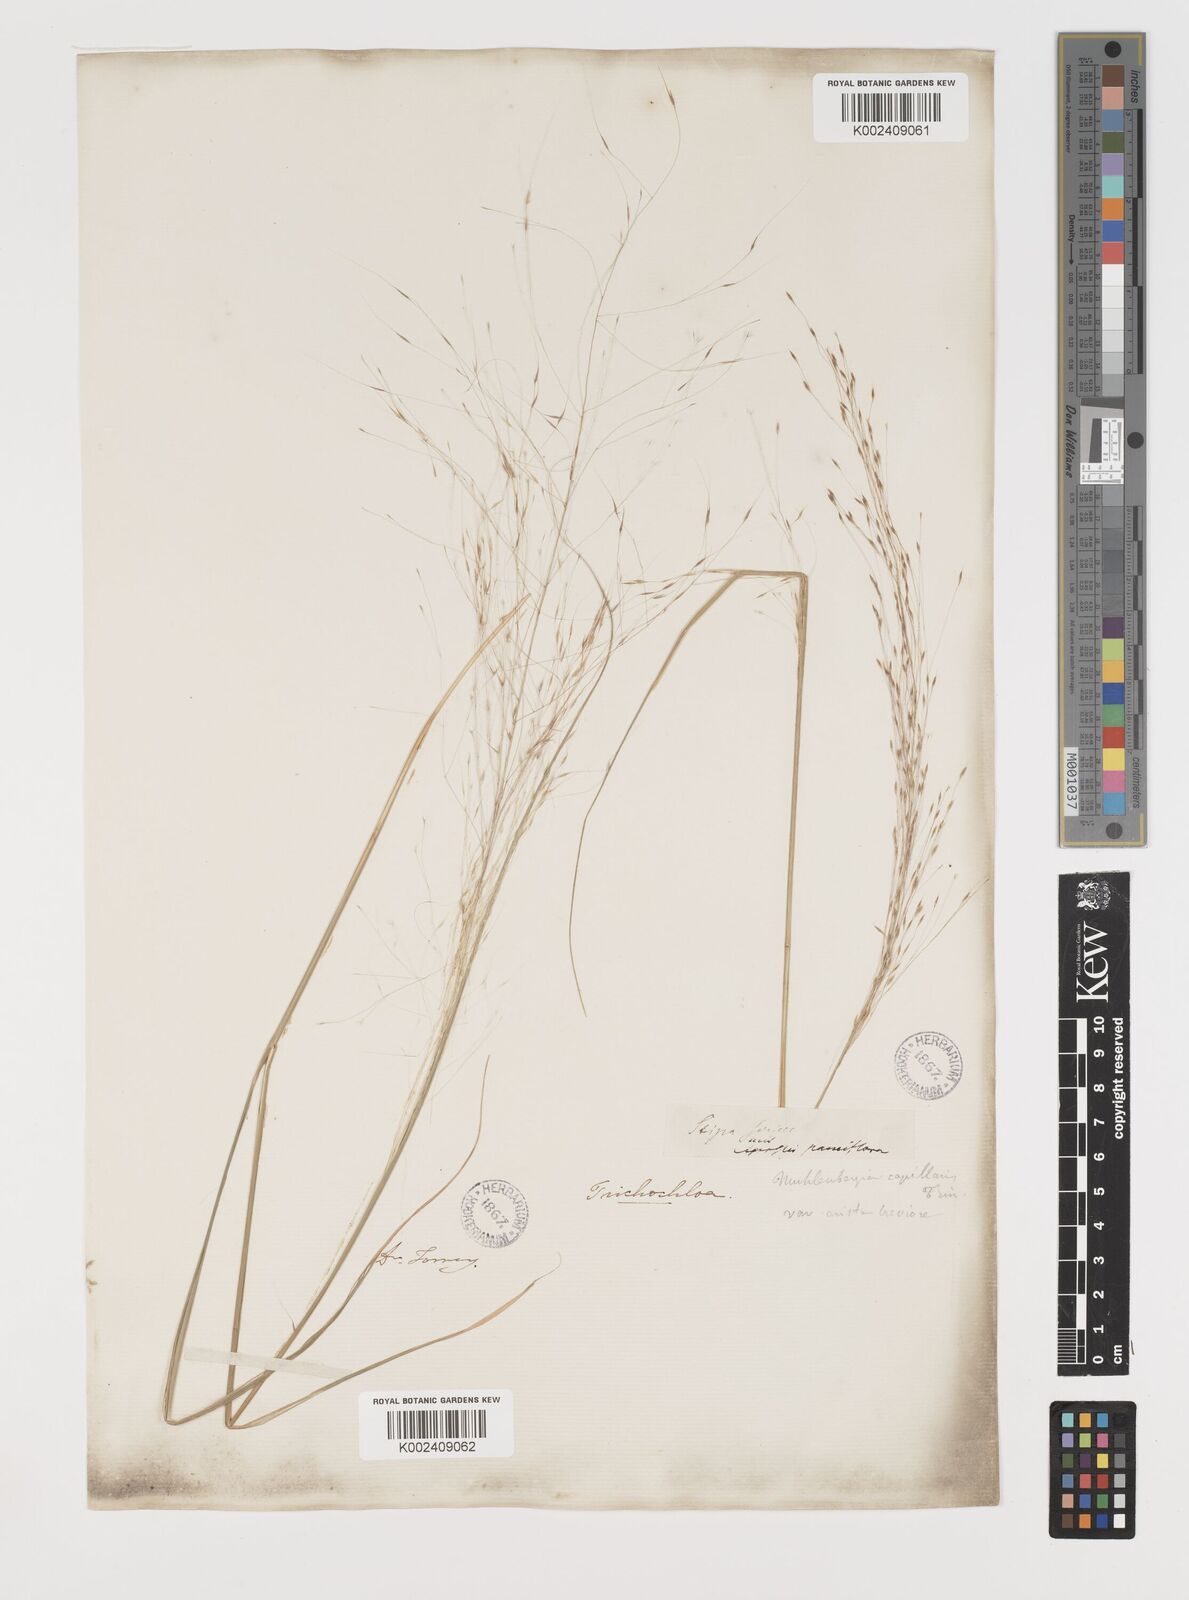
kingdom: Plantae
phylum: Tracheophyta
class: Liliopsida
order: Poales
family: Poaceae
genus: Muhlenbergia
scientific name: Muhlenbergia capillaris
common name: Purple grass
